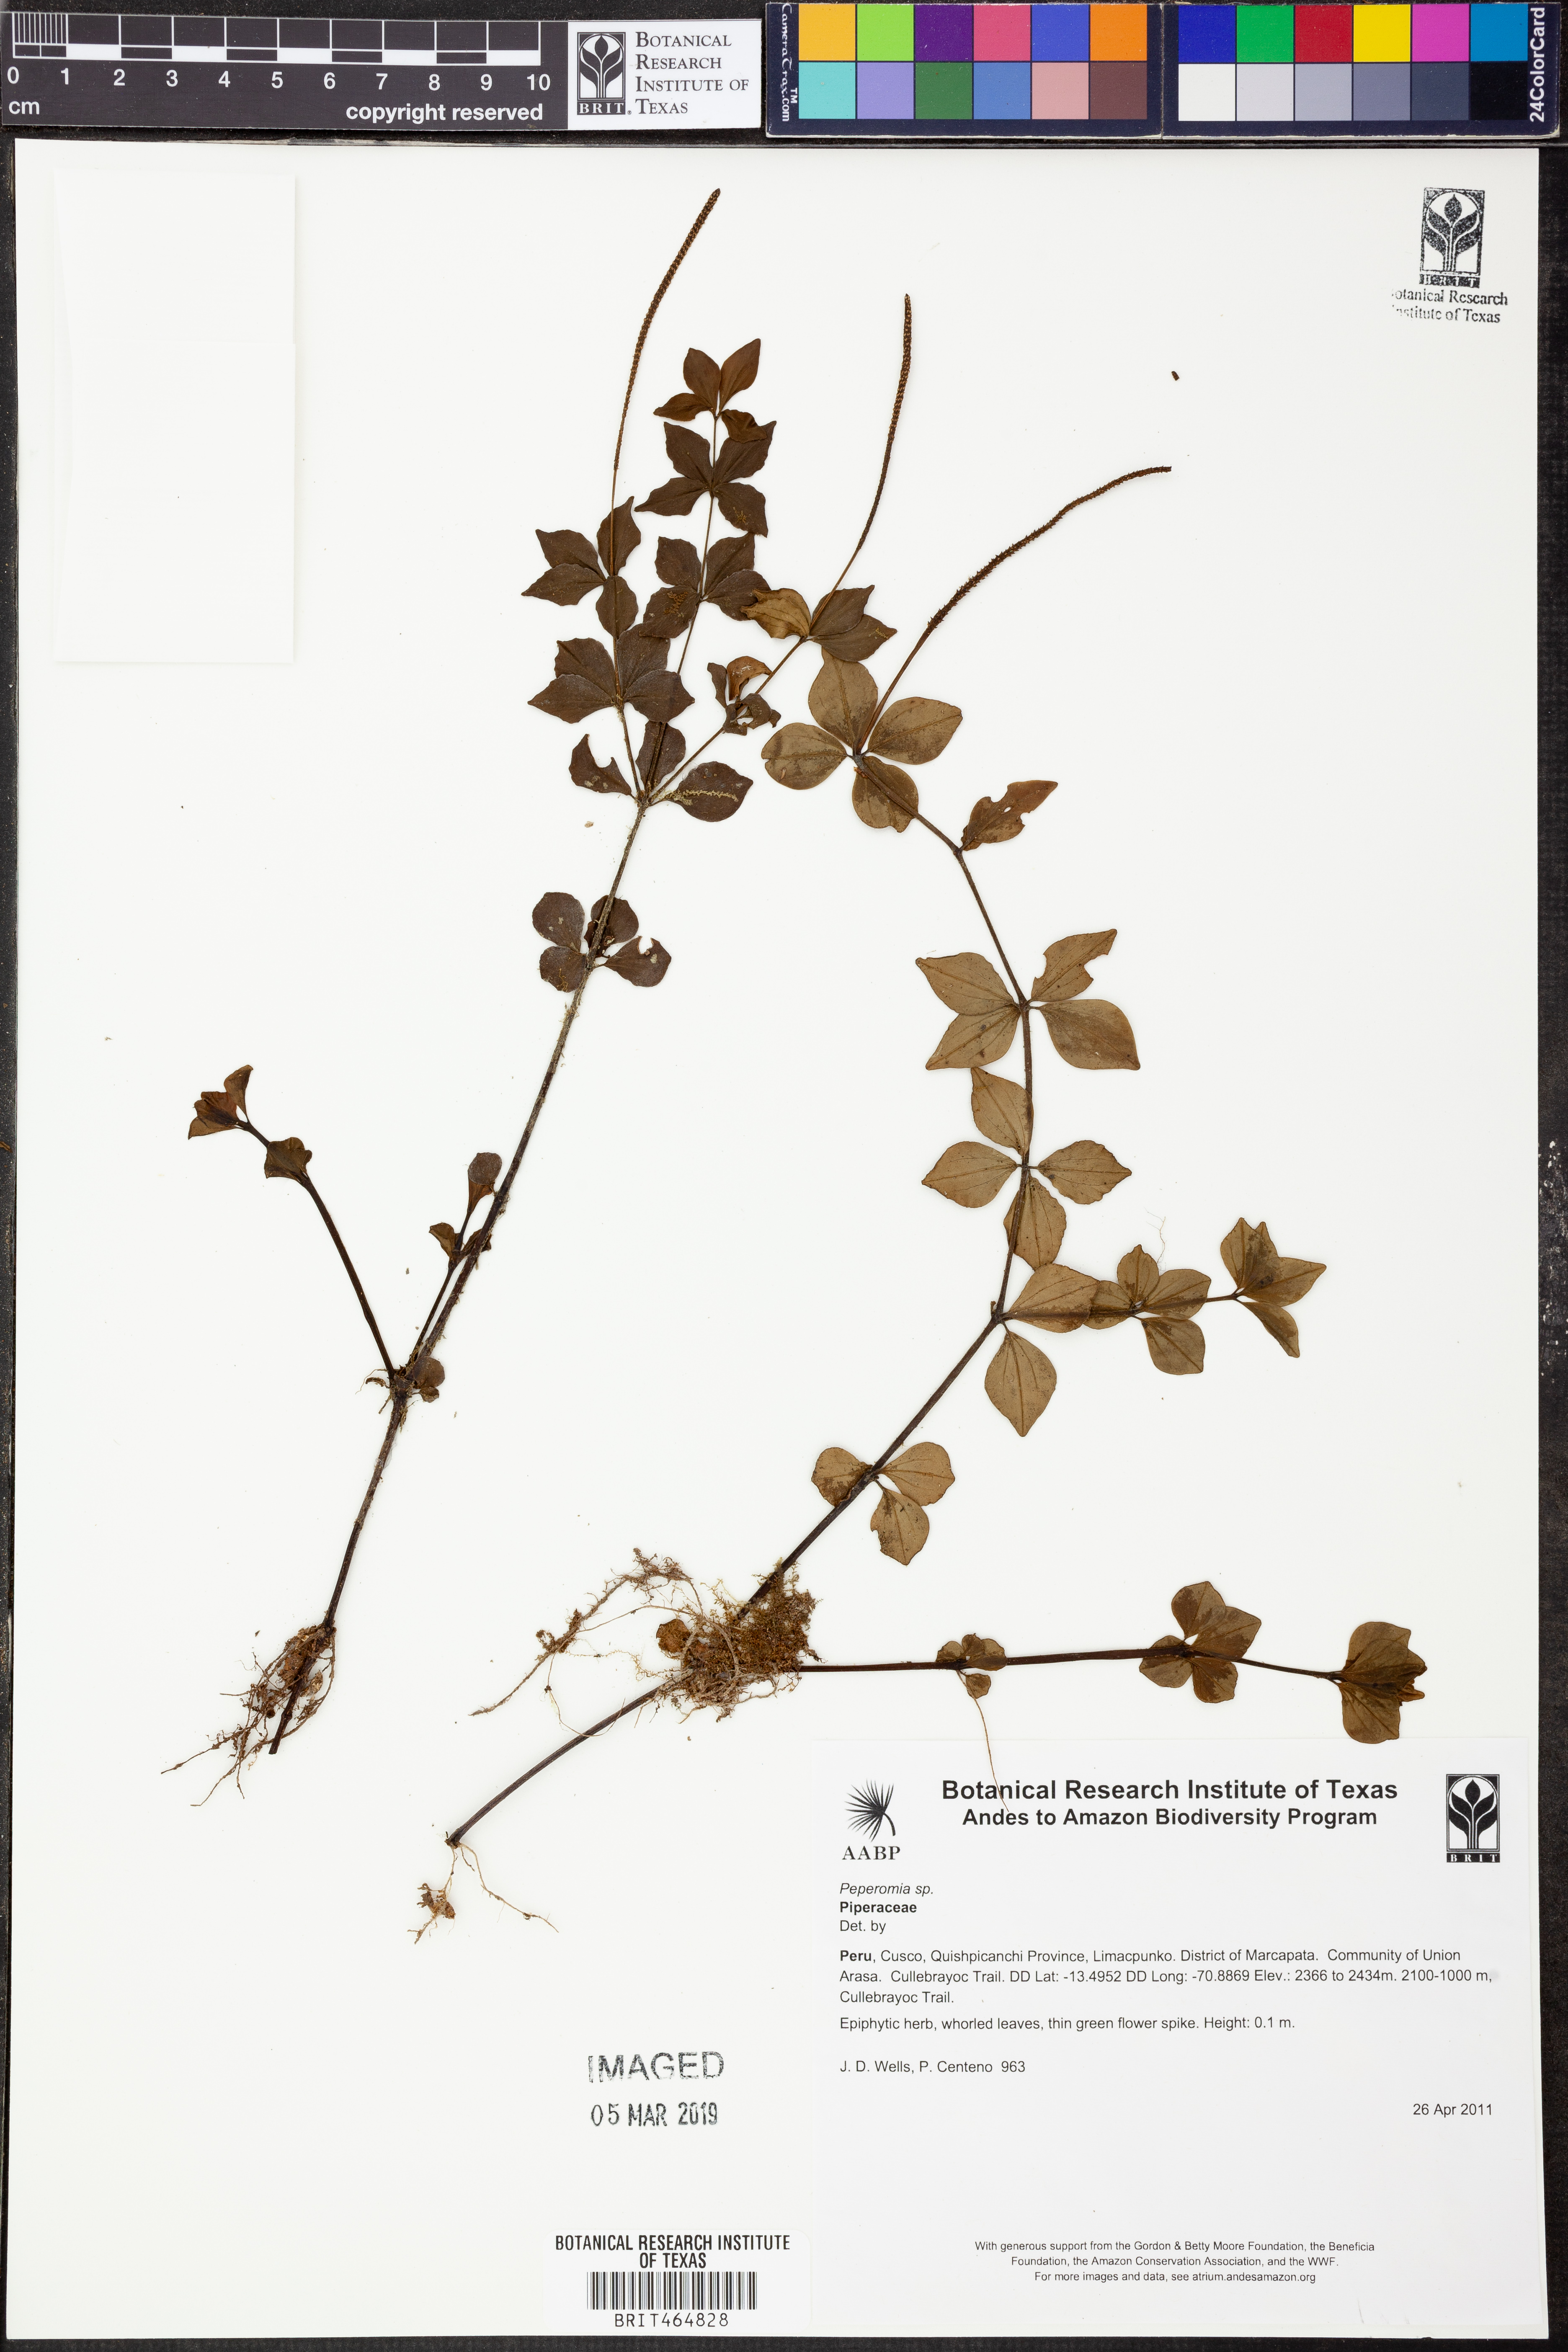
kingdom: Plantae
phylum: Tracheophyta
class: Magnoliopsida
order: Piperales
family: Piperaceae
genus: Peperomia
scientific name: Peperomia
